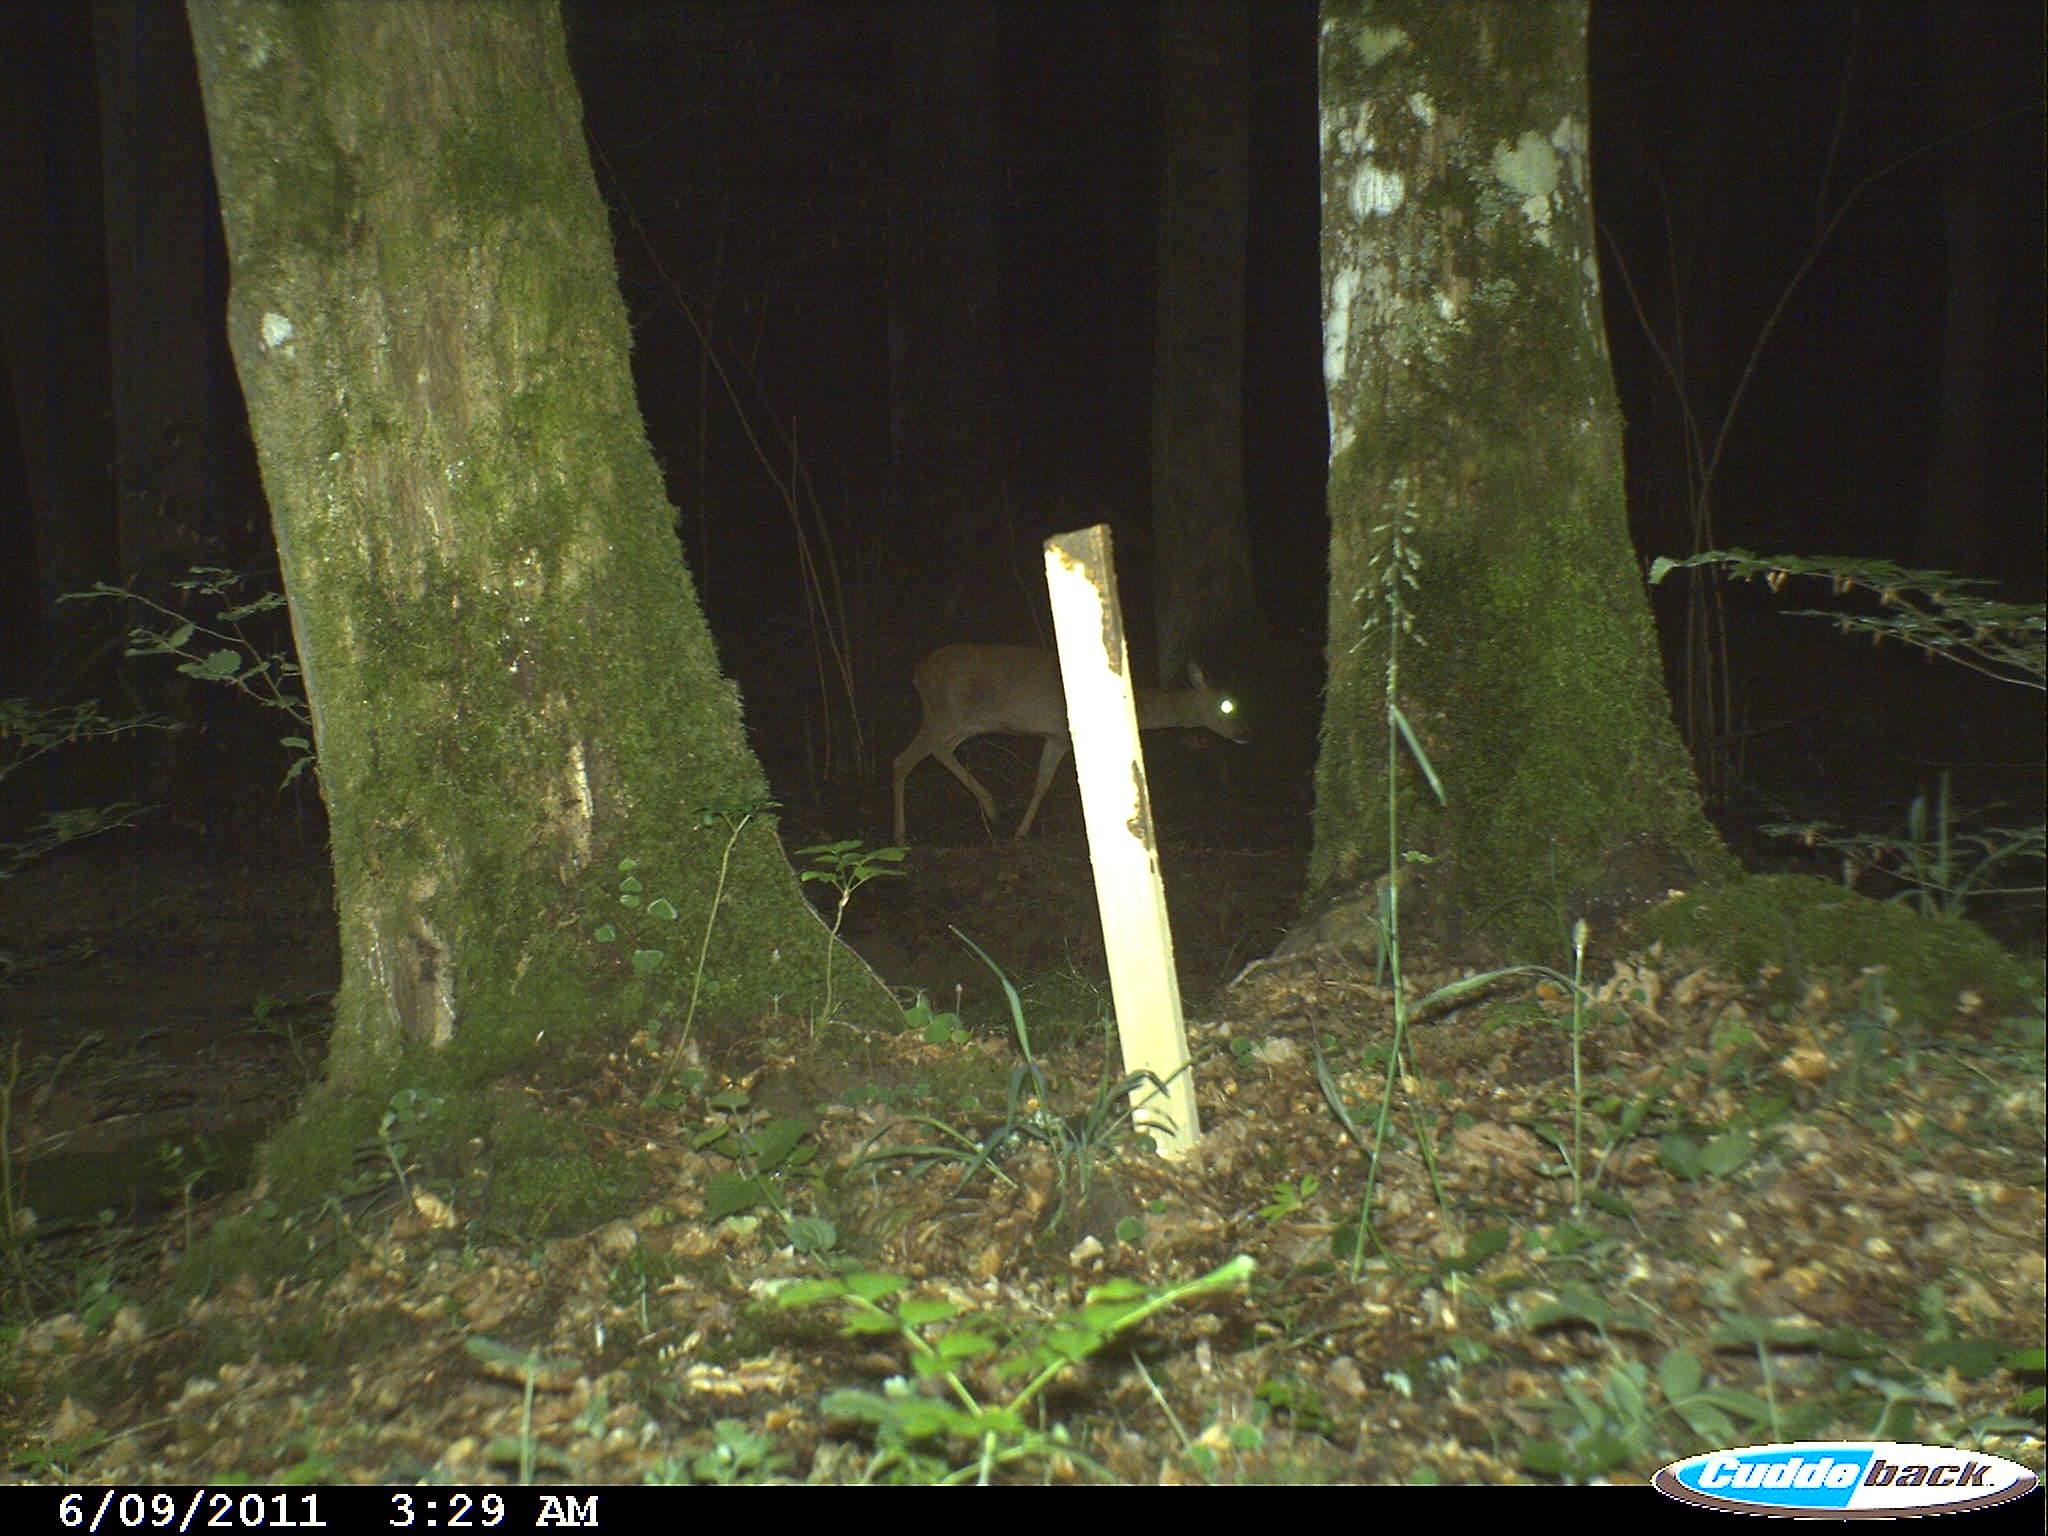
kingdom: Animalia
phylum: Chordata
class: Mammalia
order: Artiodactyla
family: Cervidae
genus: Capreolus
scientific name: Capreolus capreolus
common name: Western roe deer
